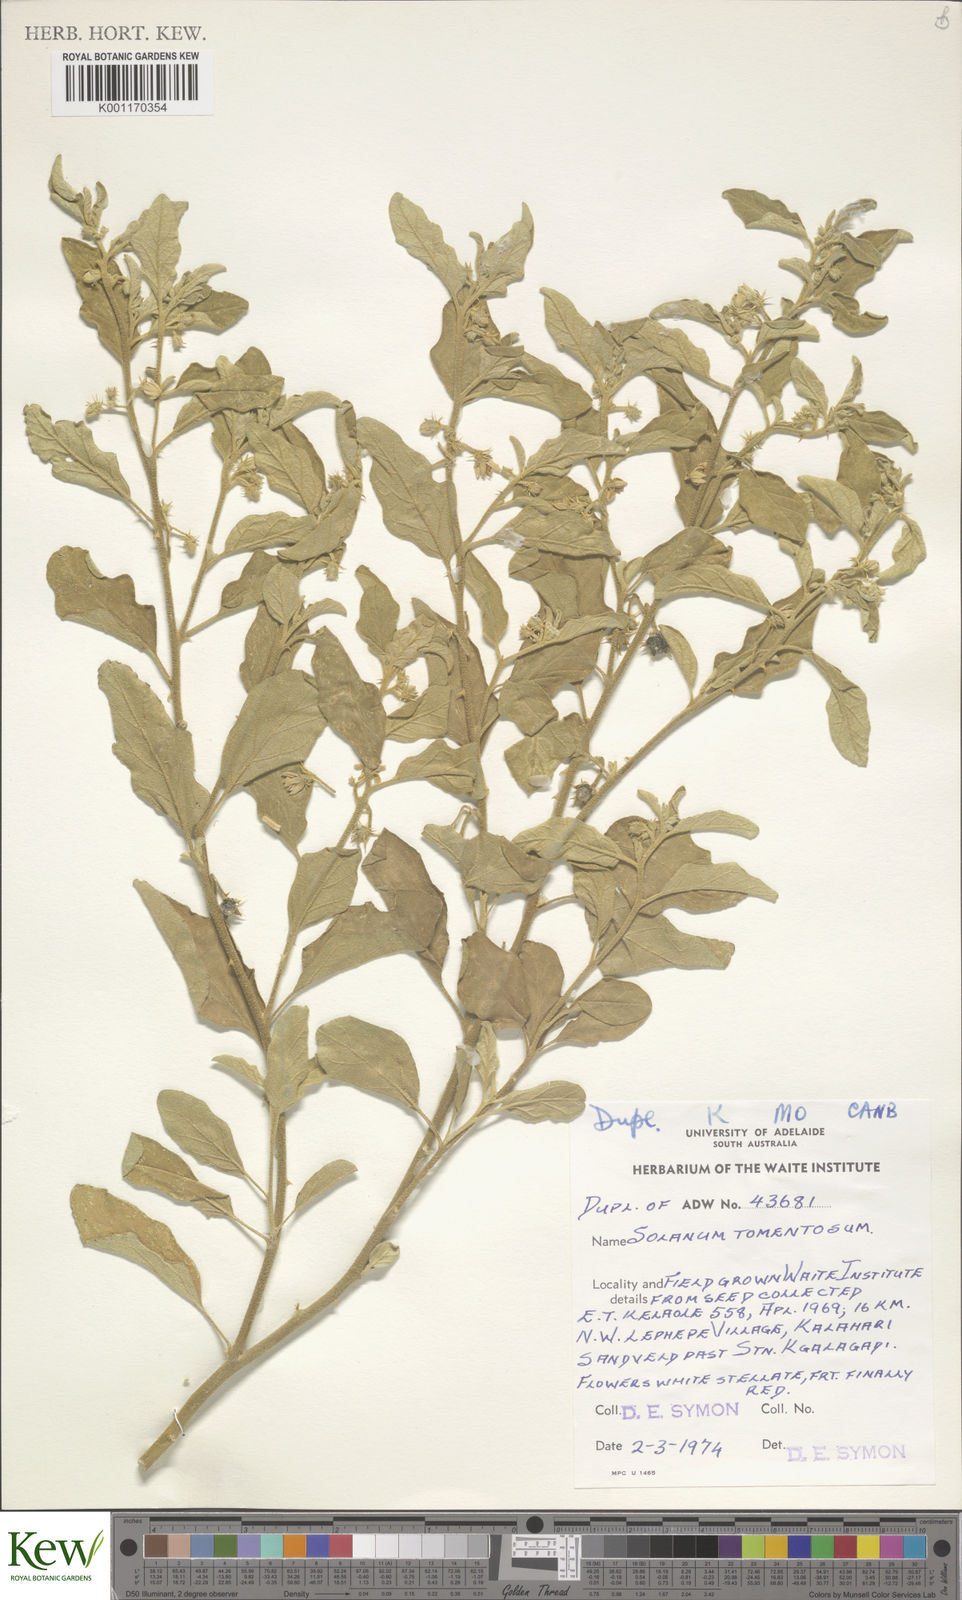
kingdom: Plantae
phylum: Tracheophyta
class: Magnoliopsida
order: Solanales
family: Solanaceae
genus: Solanum
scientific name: Solanum tomentosum
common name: Wild aubergine
